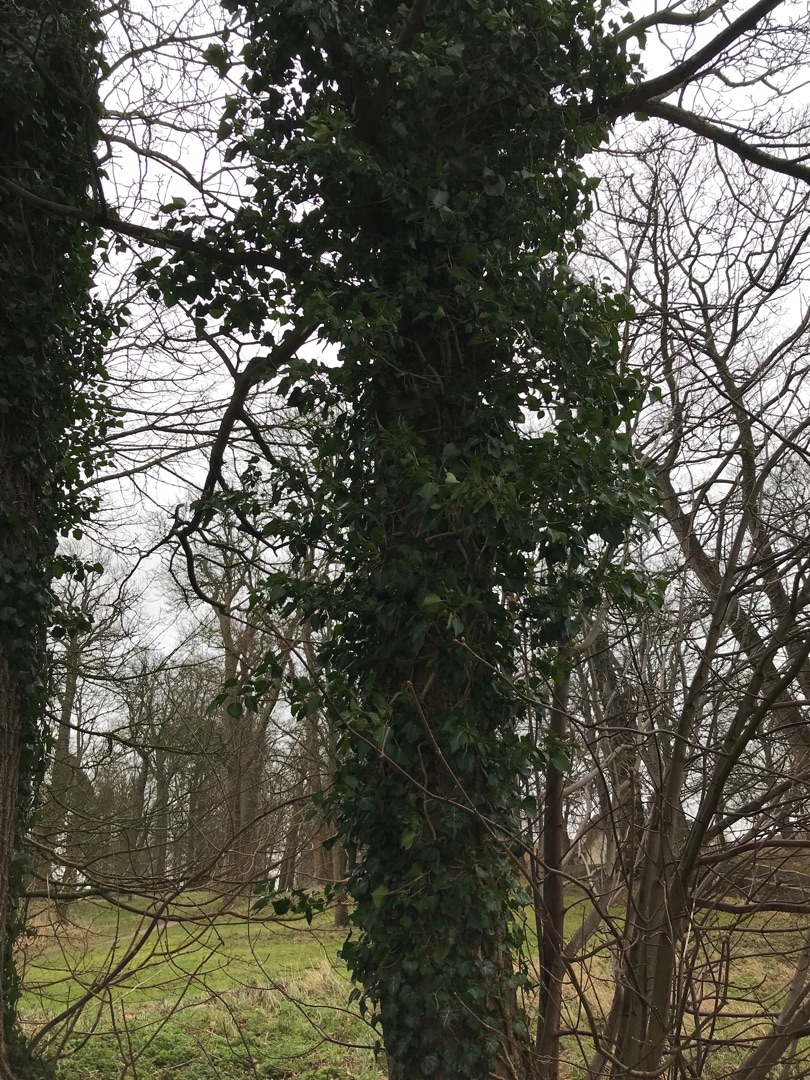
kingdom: Plantae
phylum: Tracheophyta
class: Magnoliopsida
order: Apiales
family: Araliaceae
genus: Hedera
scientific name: Hedera helix
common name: Vedbend
